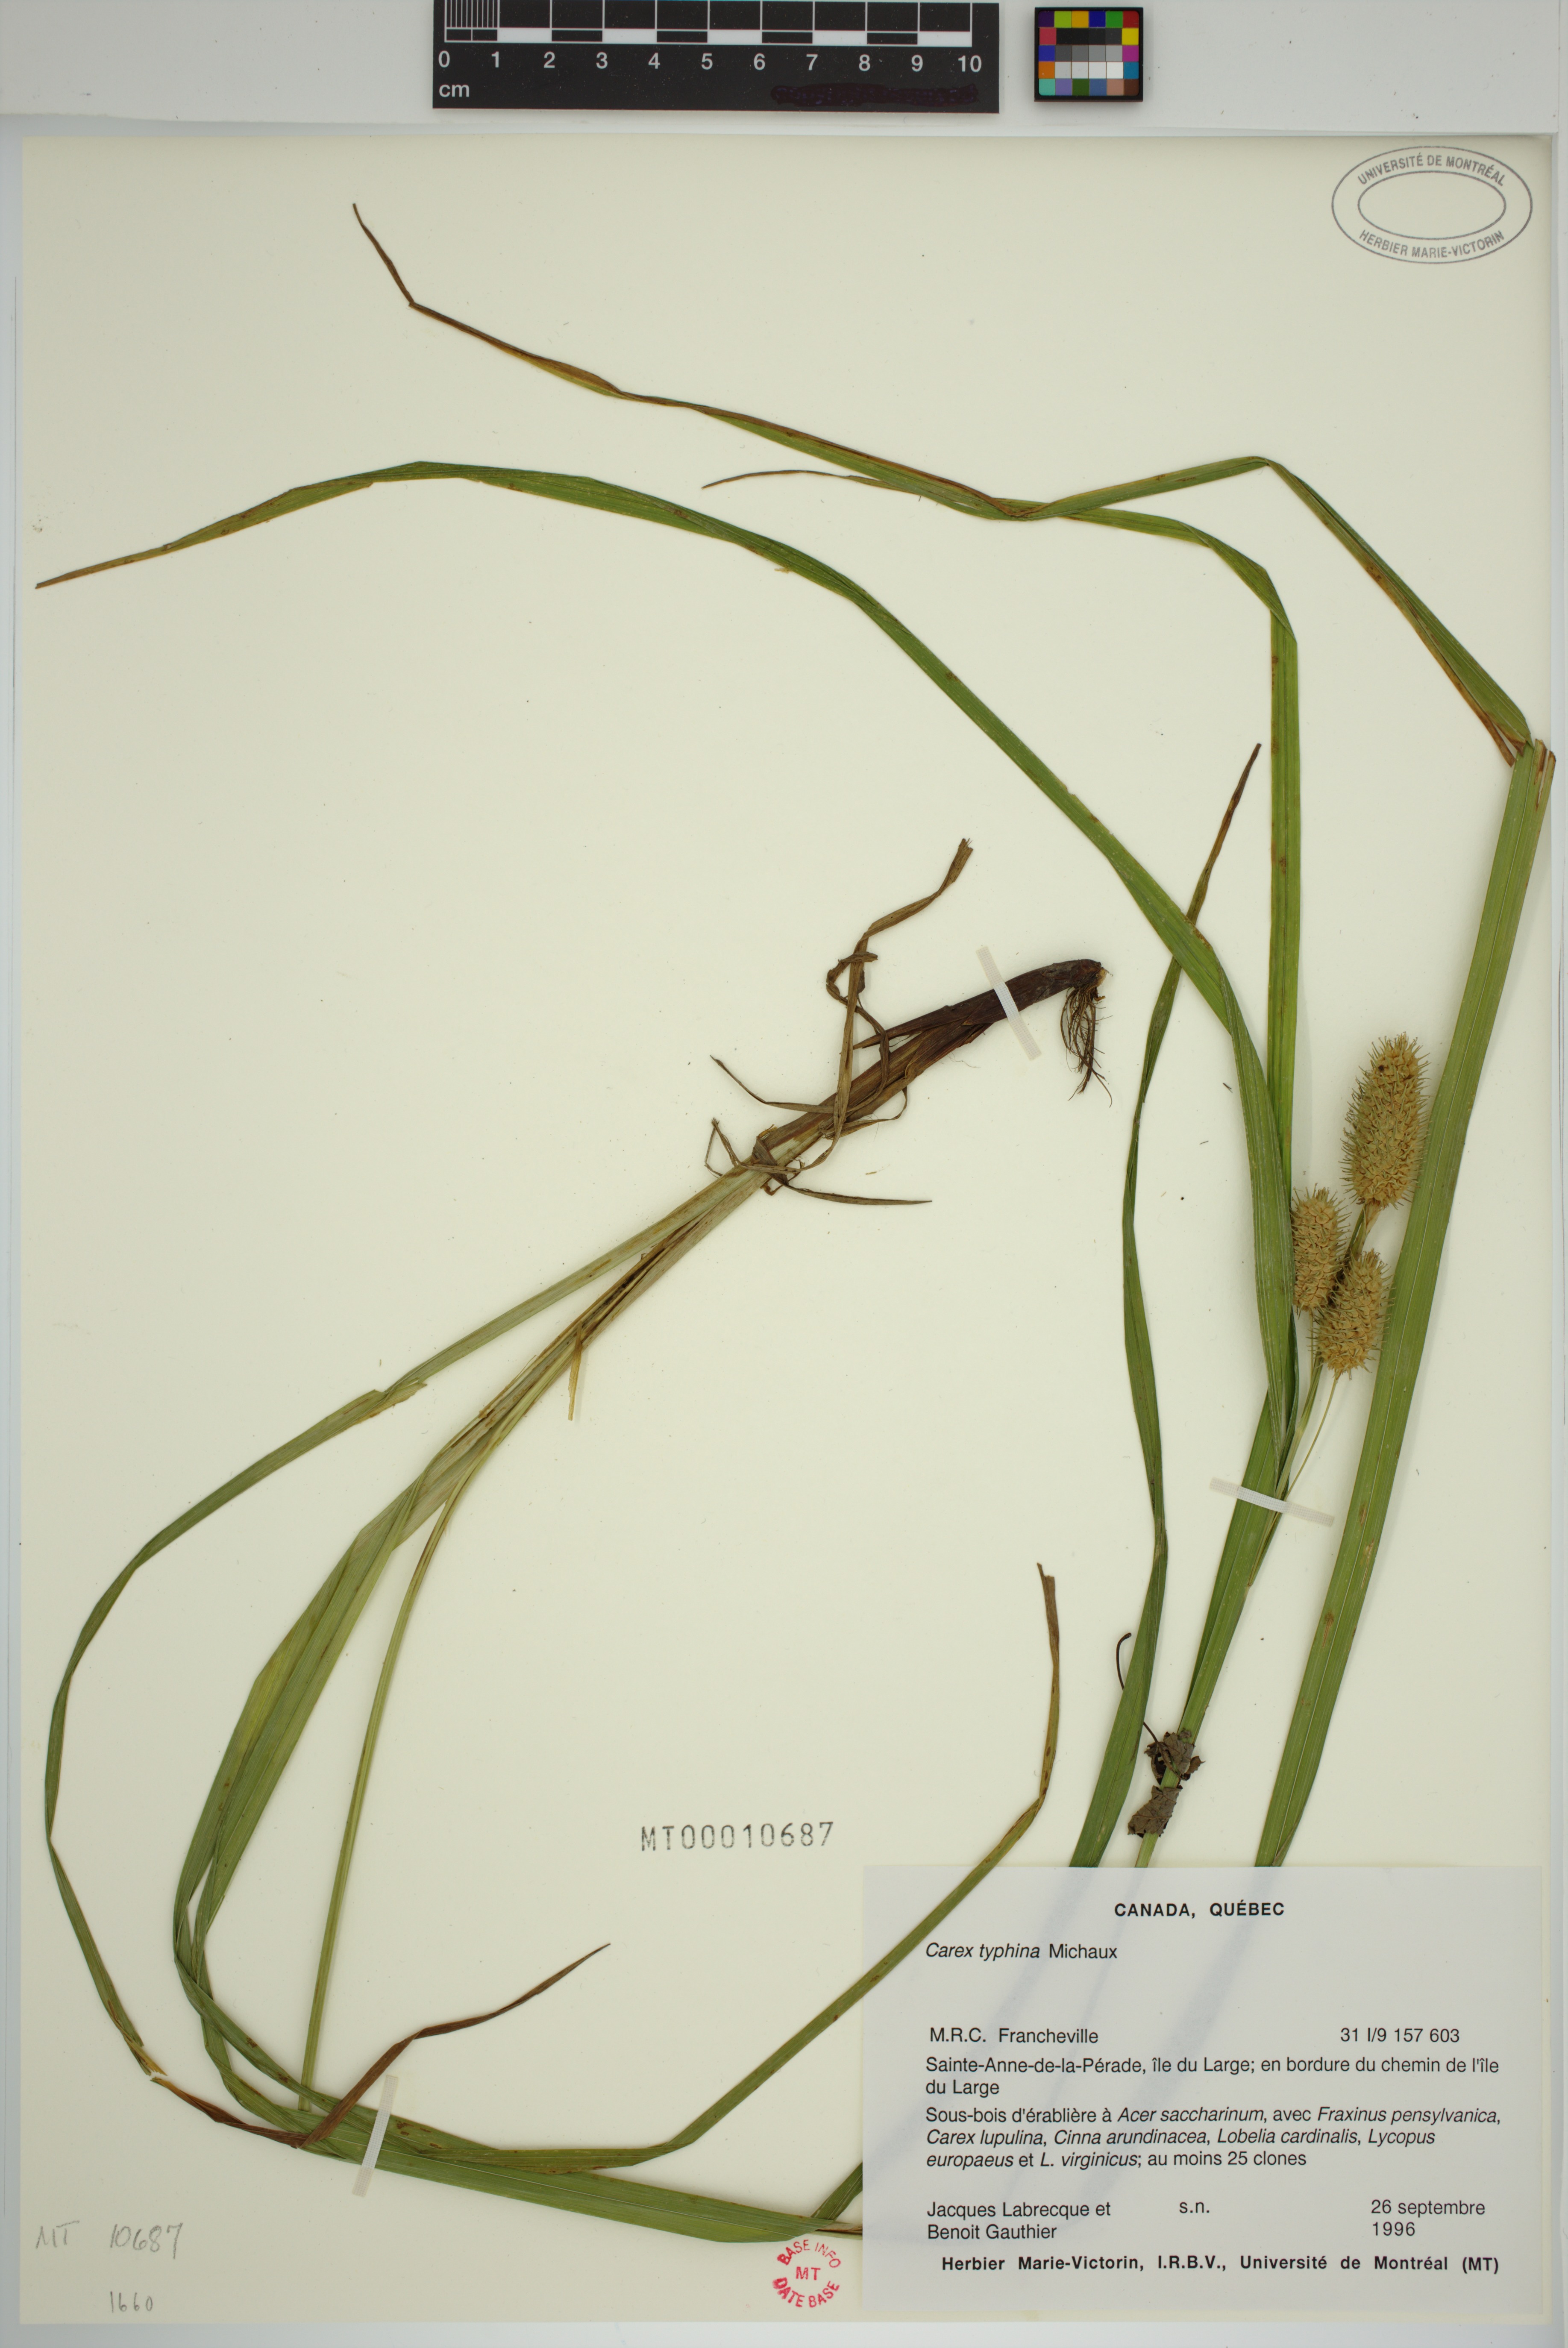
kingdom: Plantae
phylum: Tracheophyta
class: Liliopsida
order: Poales
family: Cyperaceae
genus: Carex
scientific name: Carex typhina
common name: Cattail sedge
